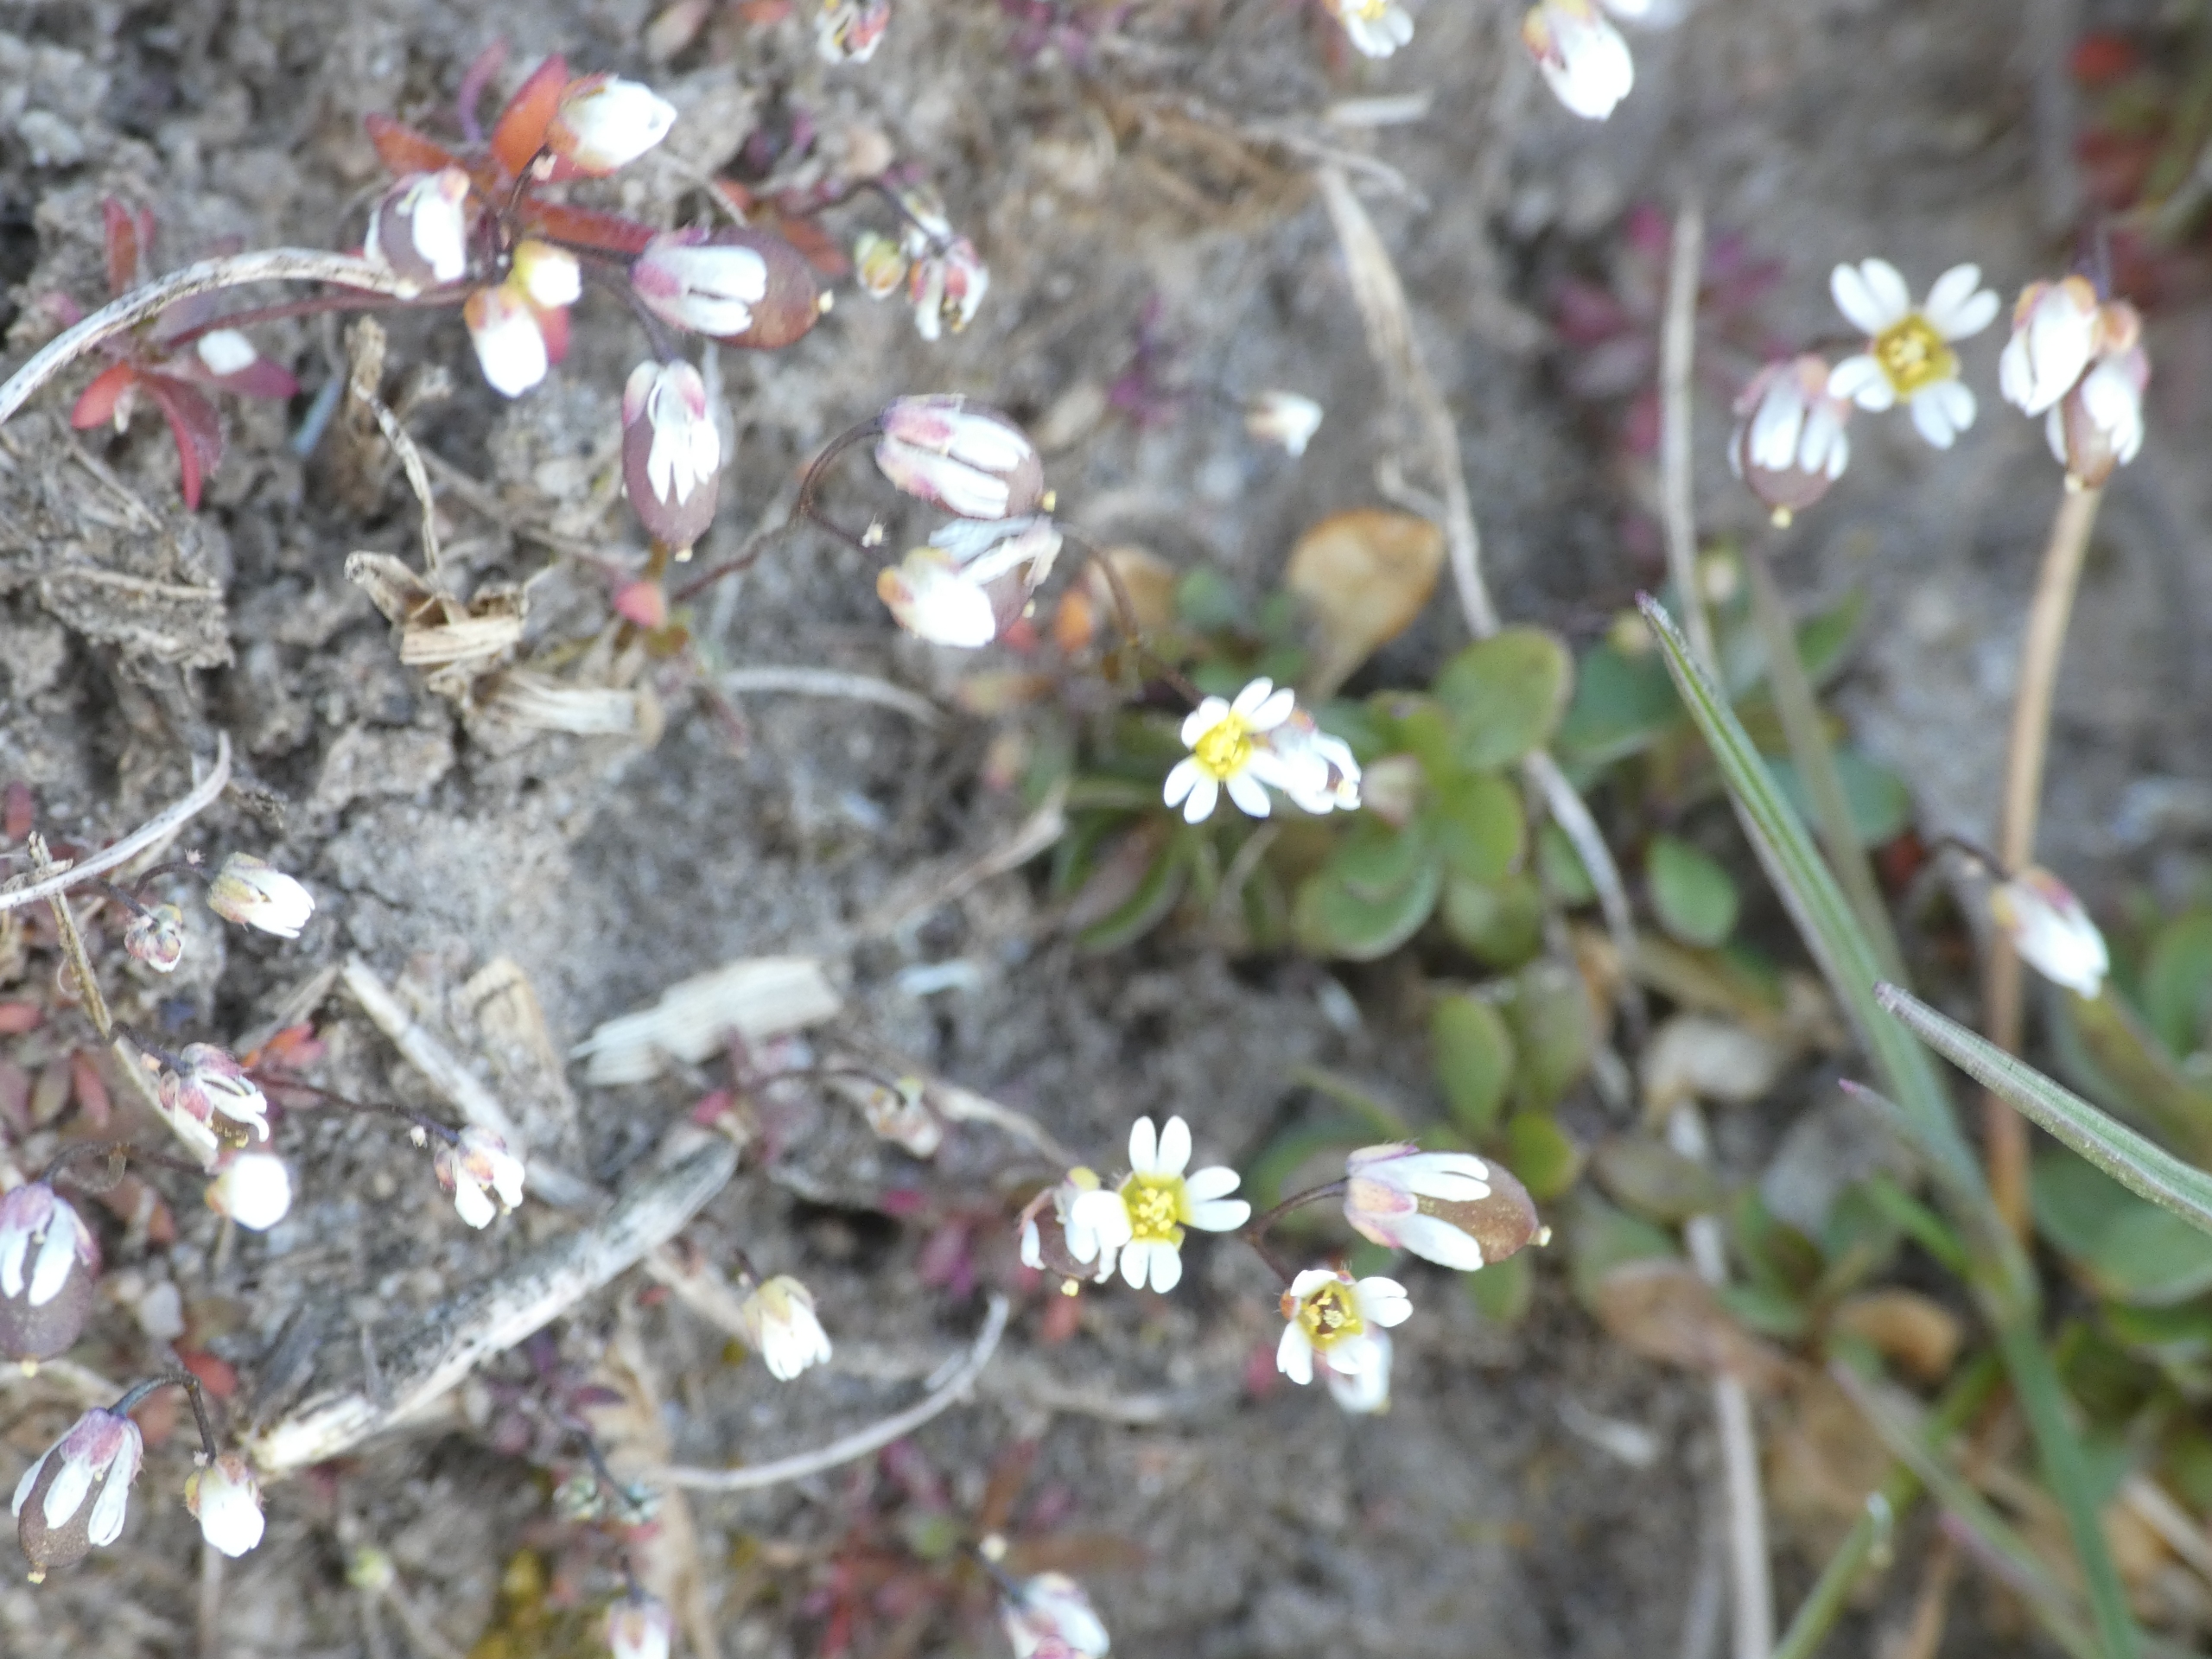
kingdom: Plantae
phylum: Tracheophyta
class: Magnoliopsida
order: Brassicales
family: Brassicaceae
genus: Draba
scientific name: Draba verna
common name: Vår-gæslingeblomst
